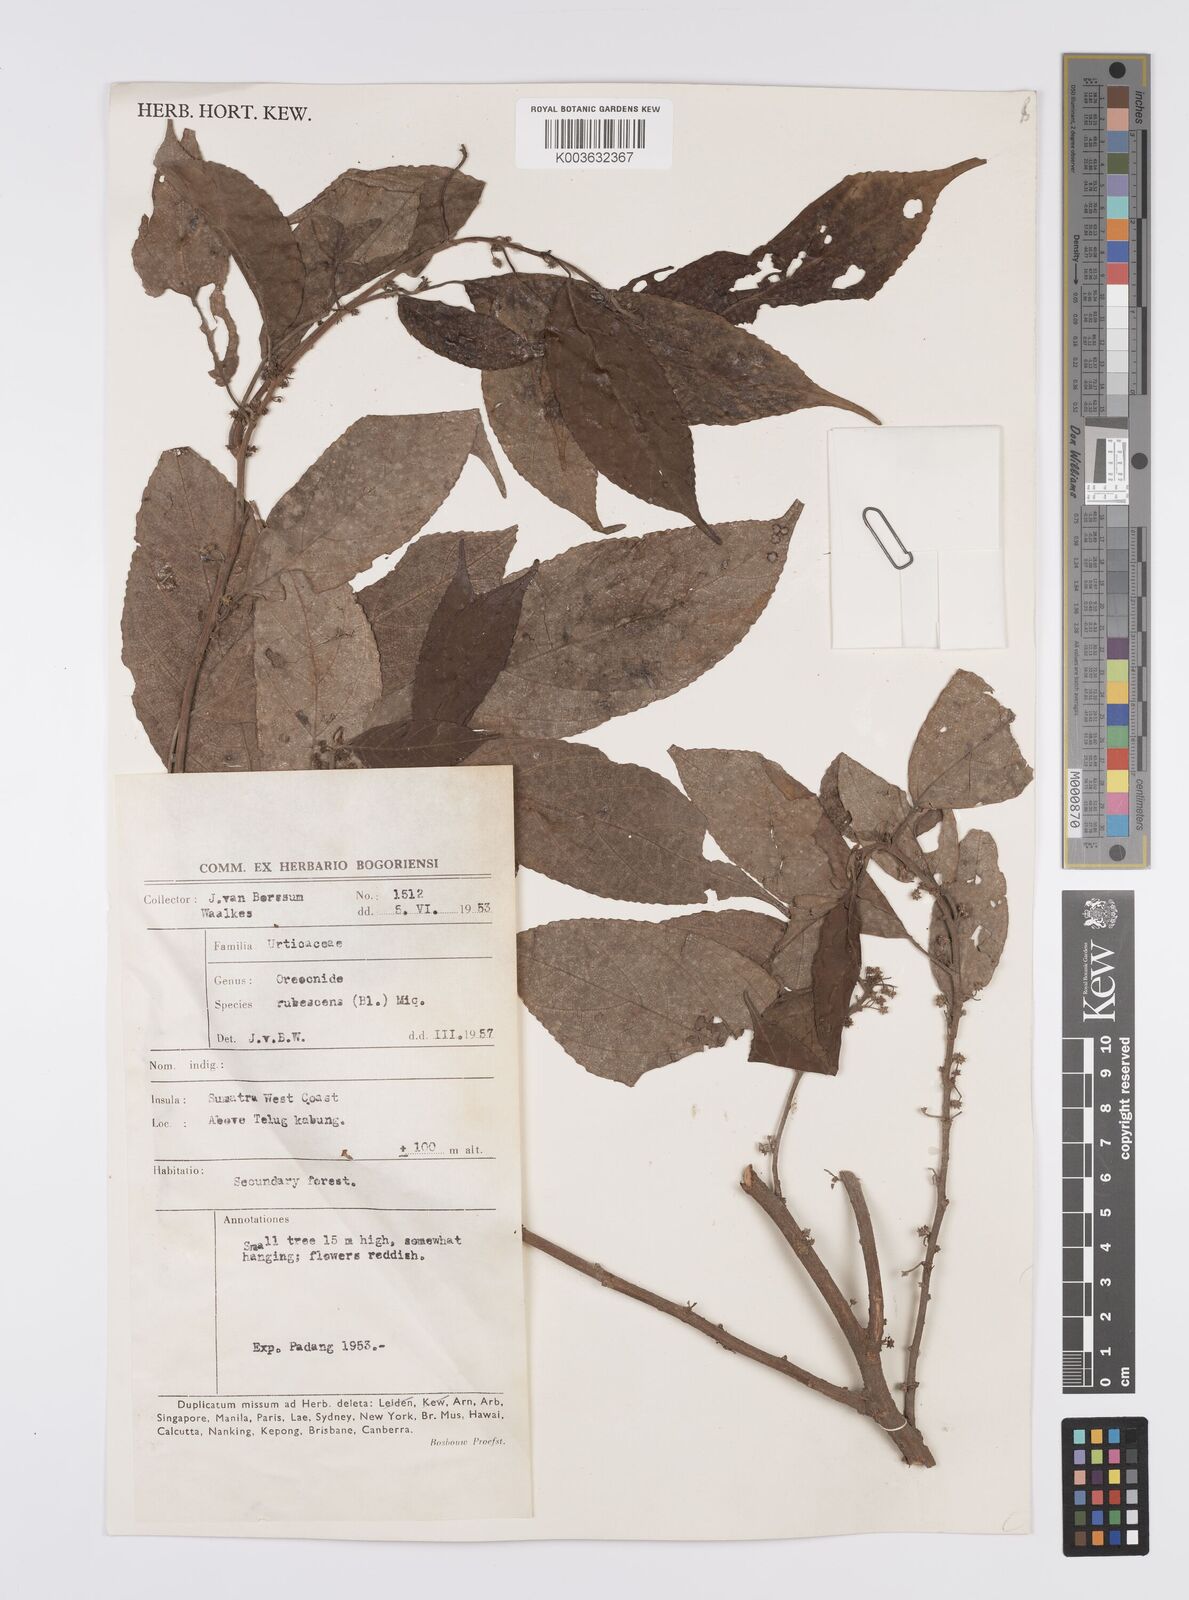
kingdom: Plantae
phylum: Tracheophyta
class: Magnoliopsida
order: Rosales
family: Urticaceae
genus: Oreocnide
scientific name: Oreocnide rubescens
